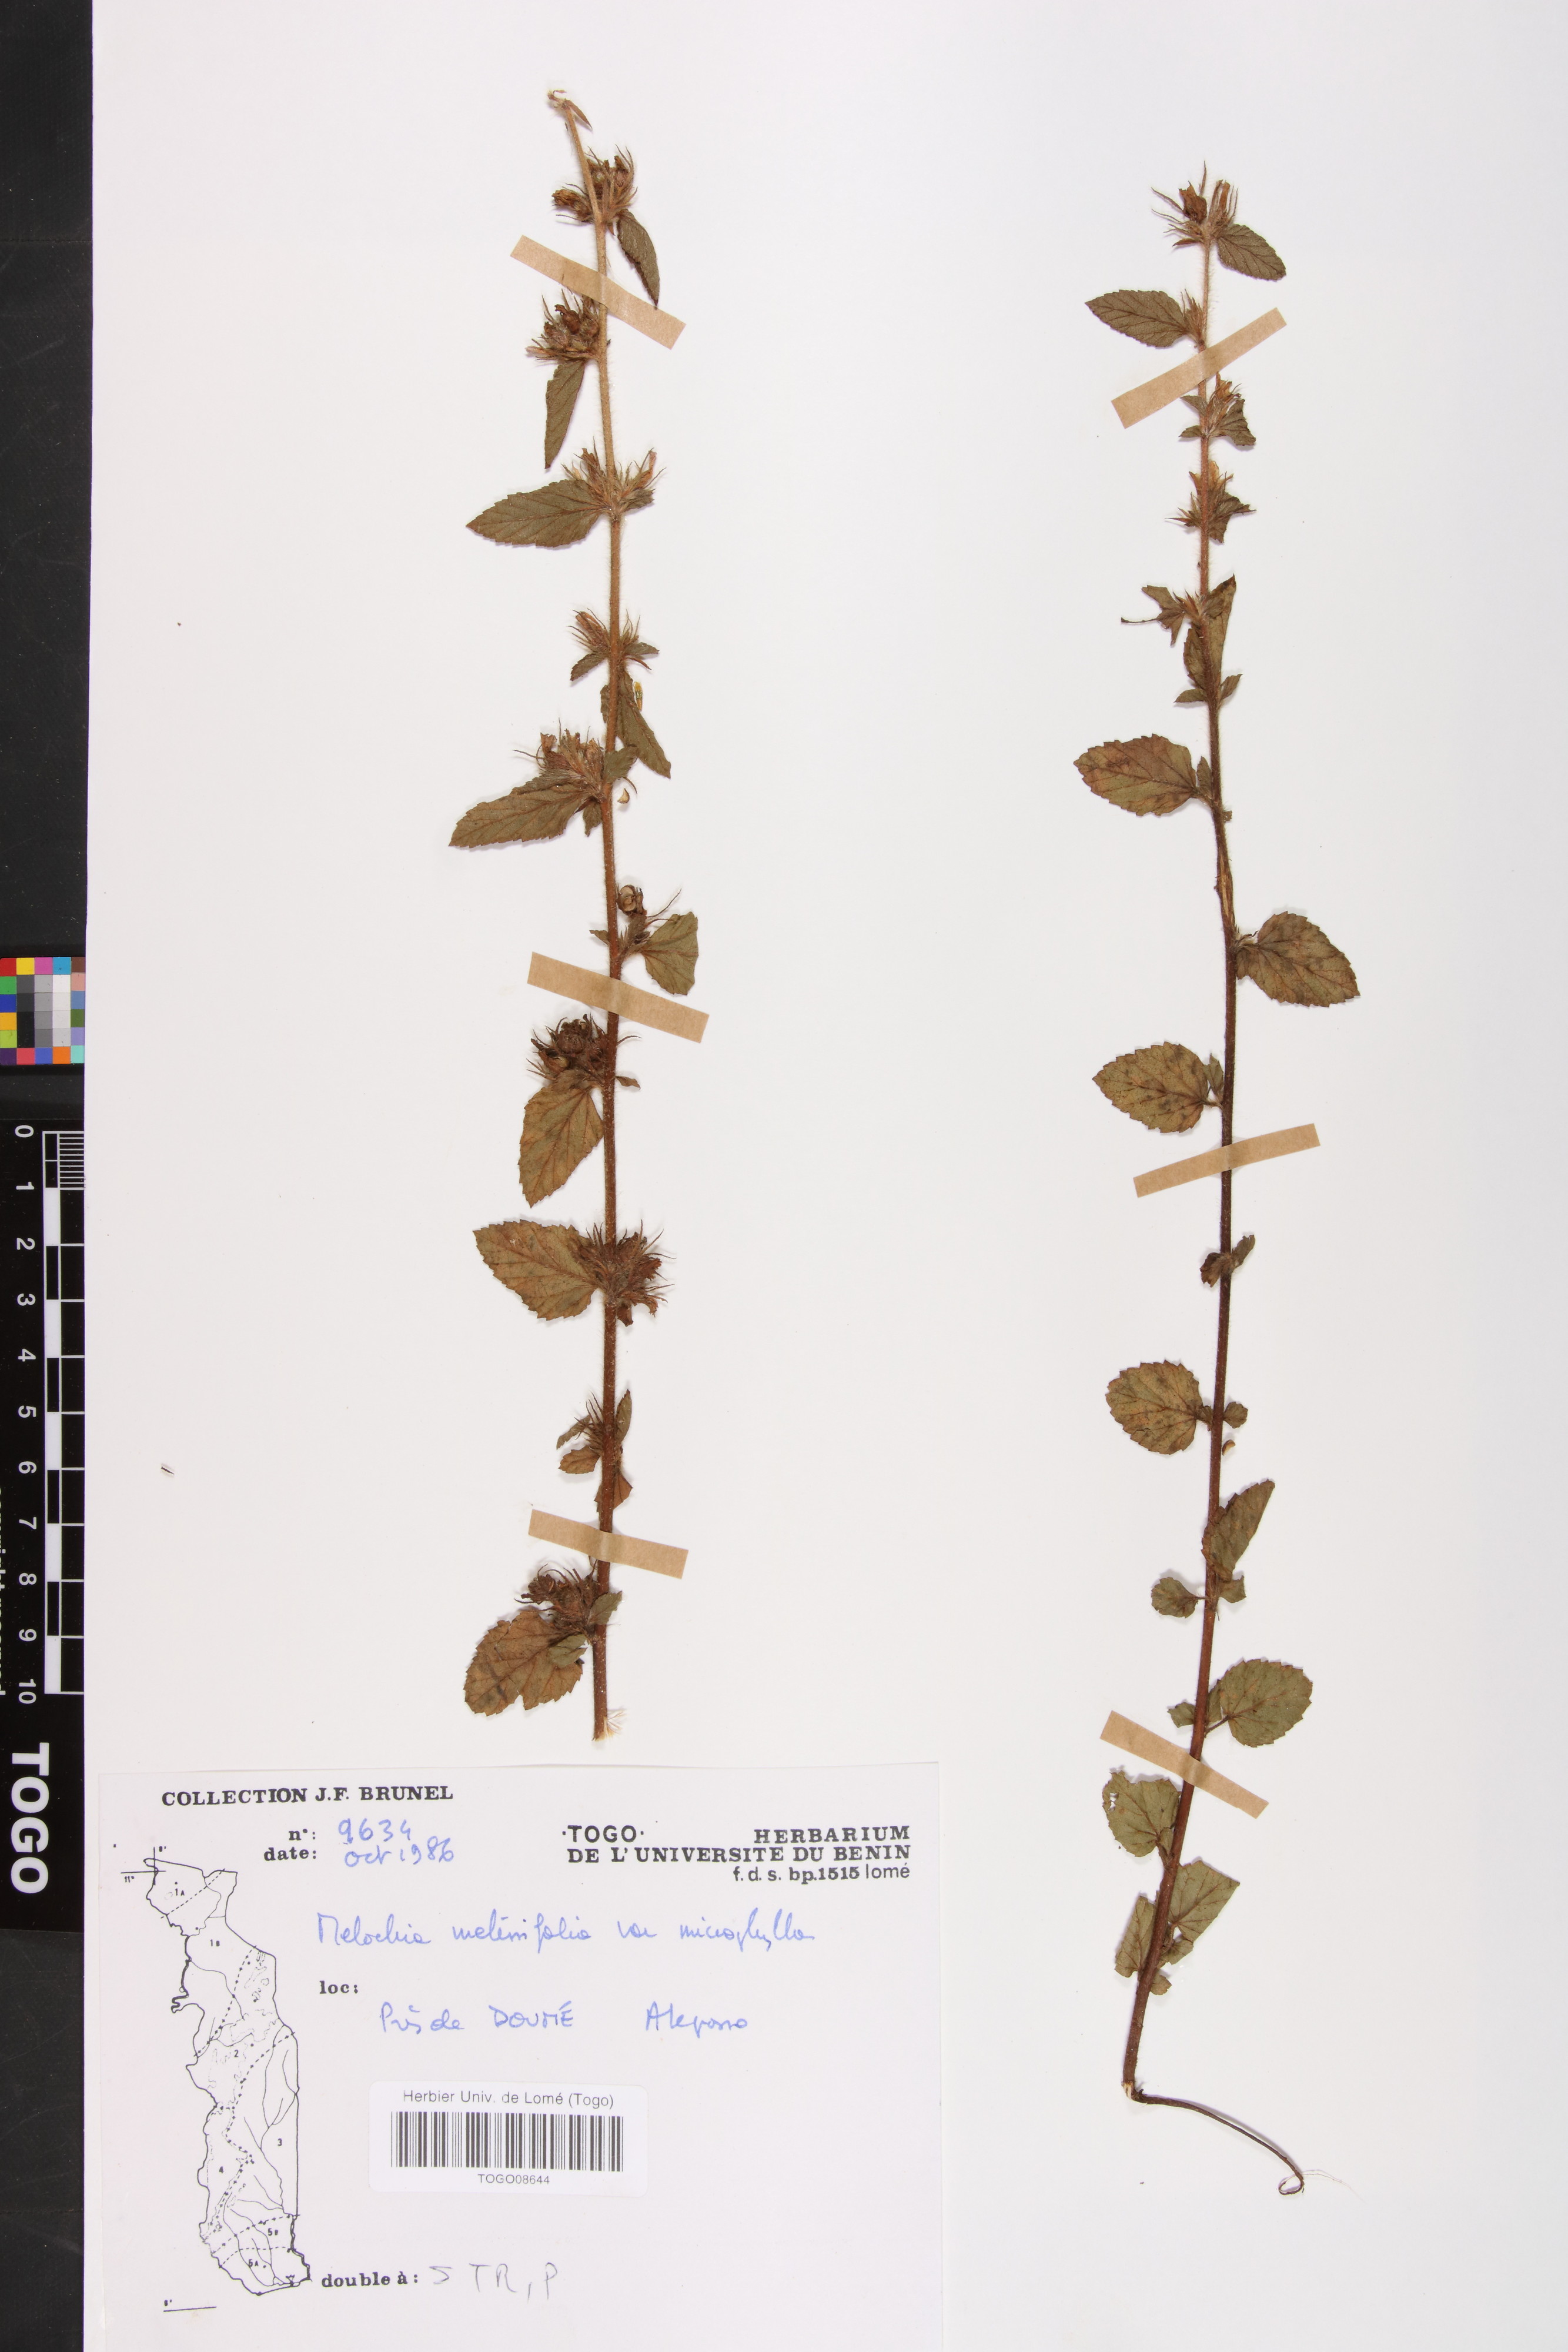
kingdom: Plantae
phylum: Tracheophyta
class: Magnoliopsida
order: Malvales
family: Malvaceae
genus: Melochia
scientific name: Melochia melissifolia
